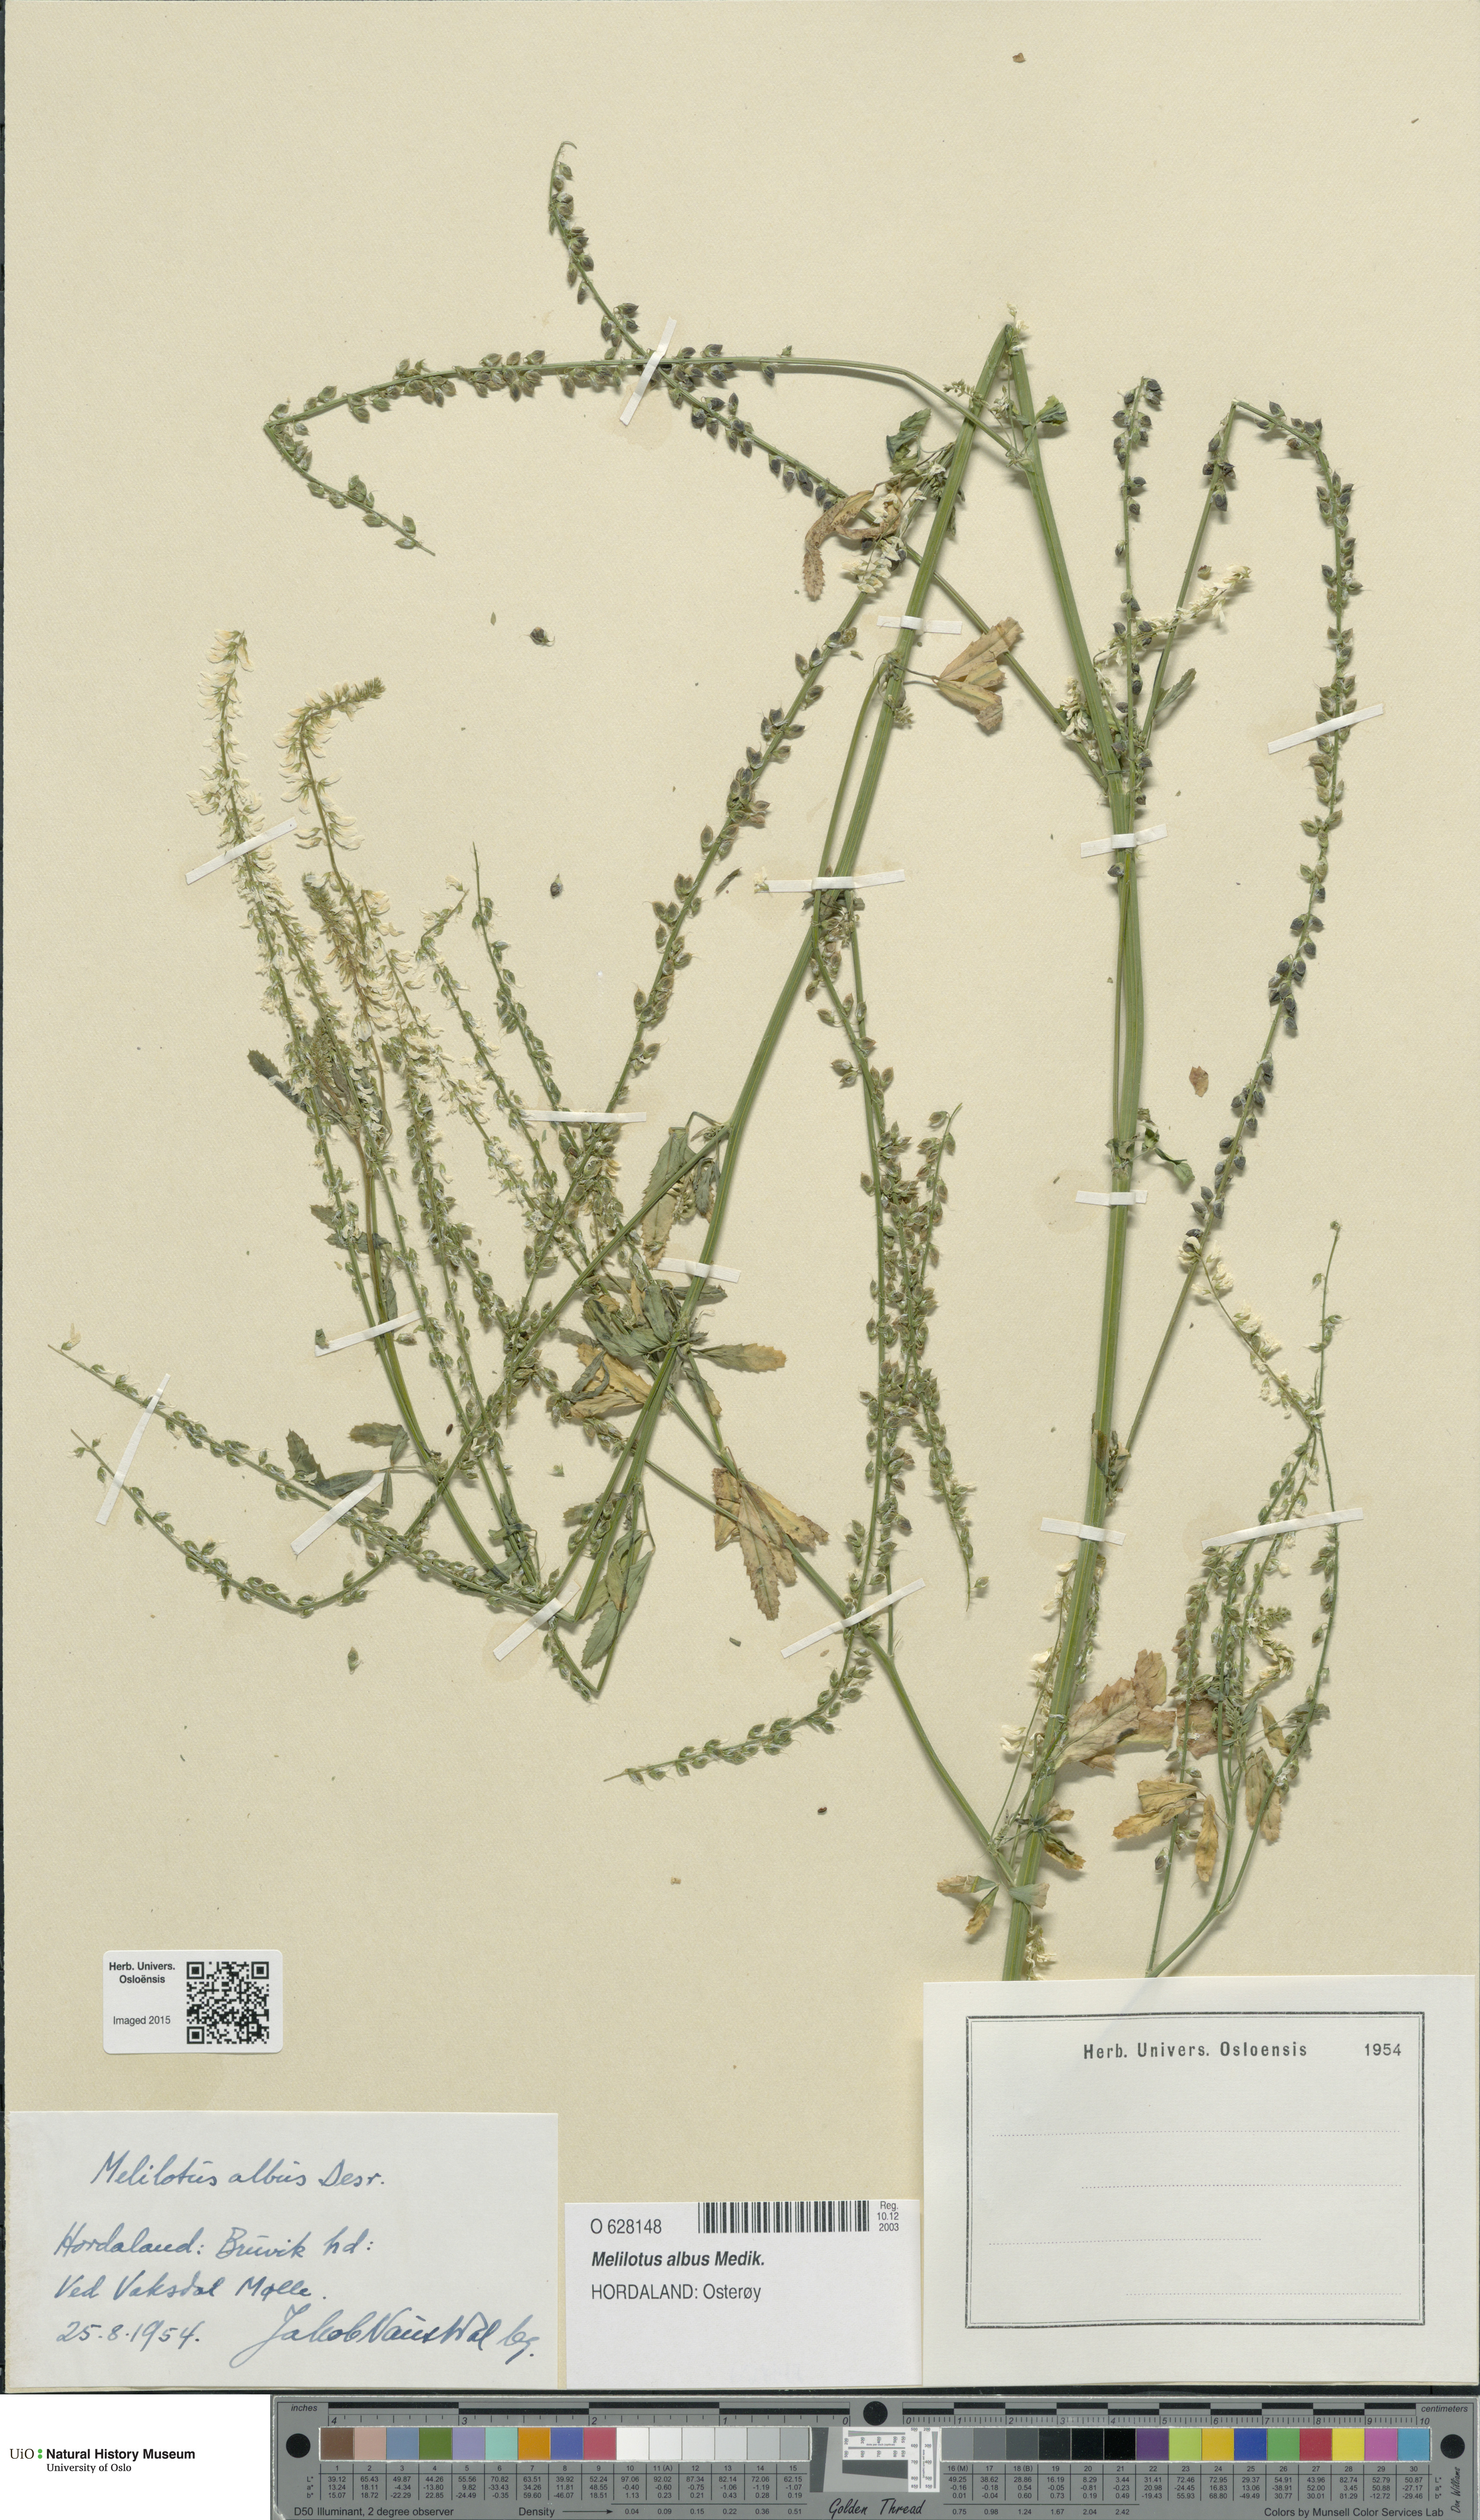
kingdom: Plantae
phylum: Tracheophyta
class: Magnoliopsida
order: Fabales
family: Fabaceae
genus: Melilotus
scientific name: Melilotus albus
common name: White melilot
